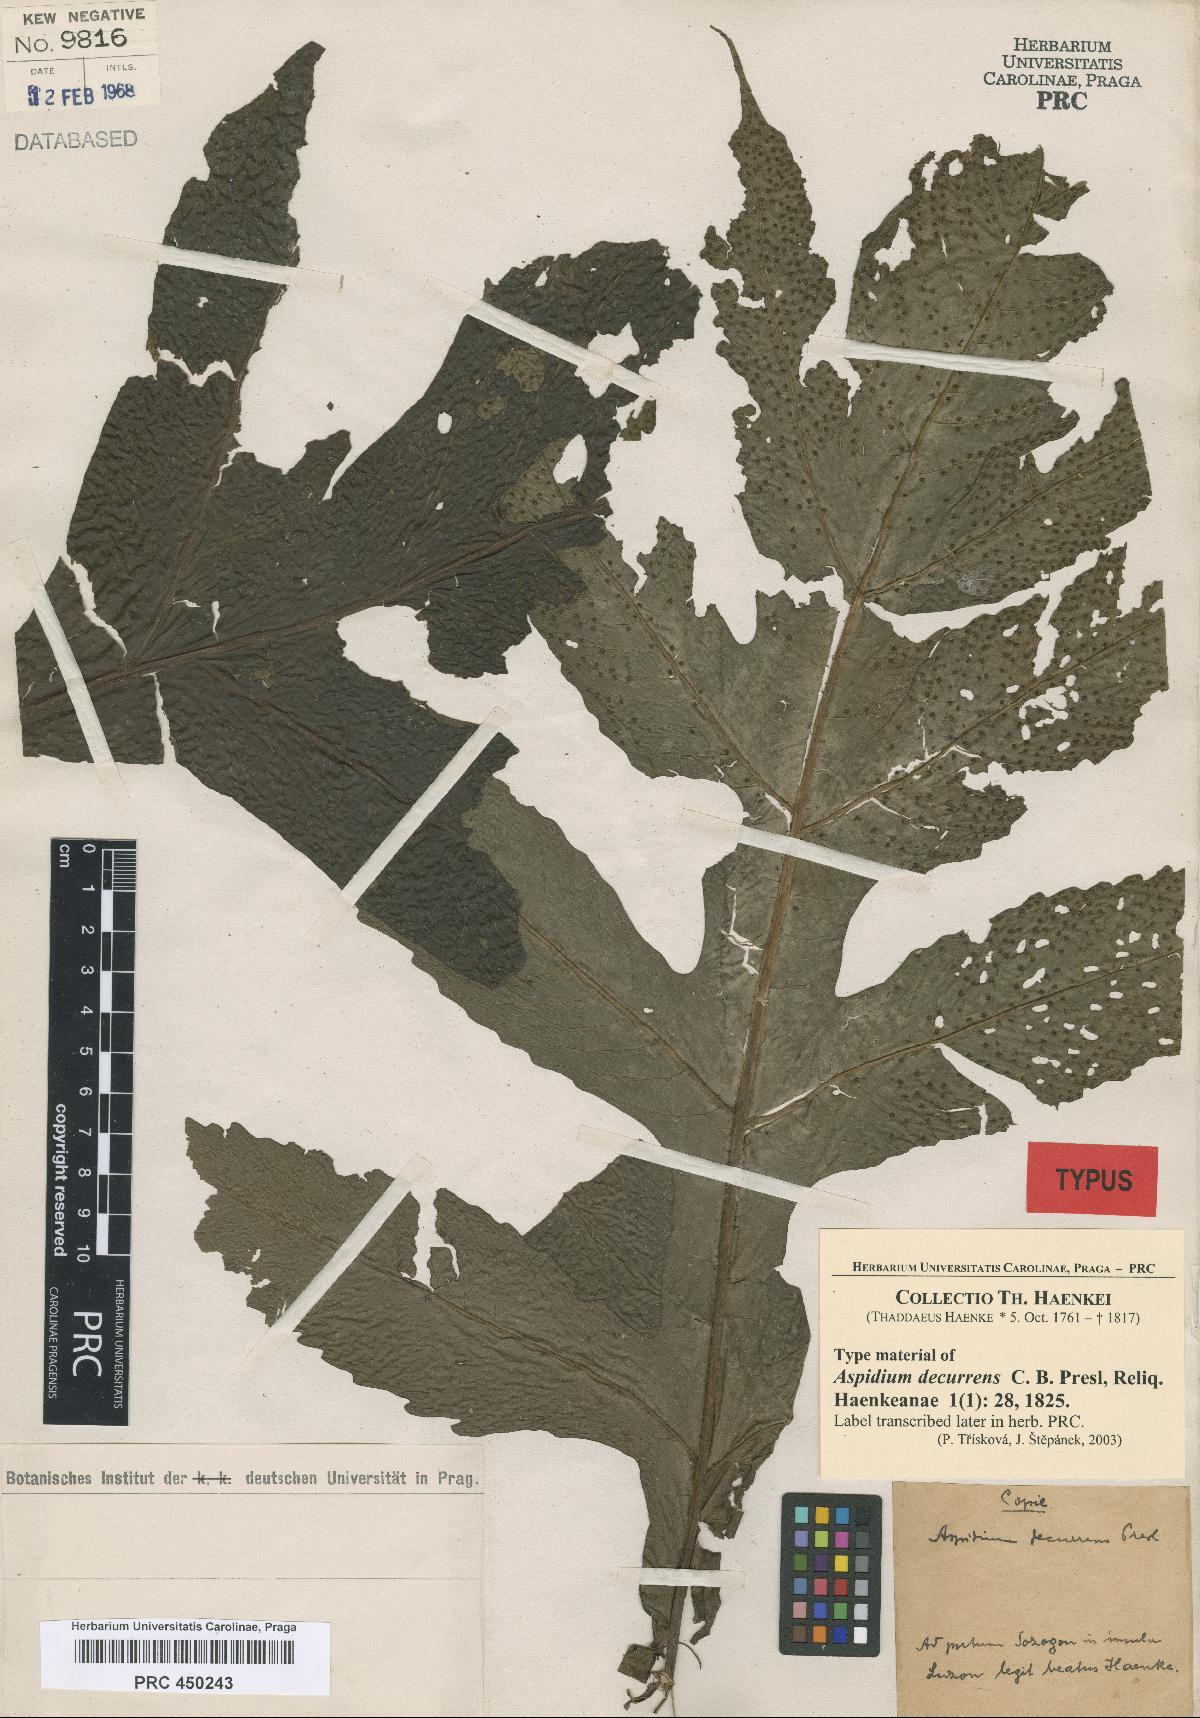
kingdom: Plantae
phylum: Tracheophyta
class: Polypodiopsida
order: Polypodiales
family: Tectariaceae
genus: Tectaria
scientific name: Tectaria decurrens
